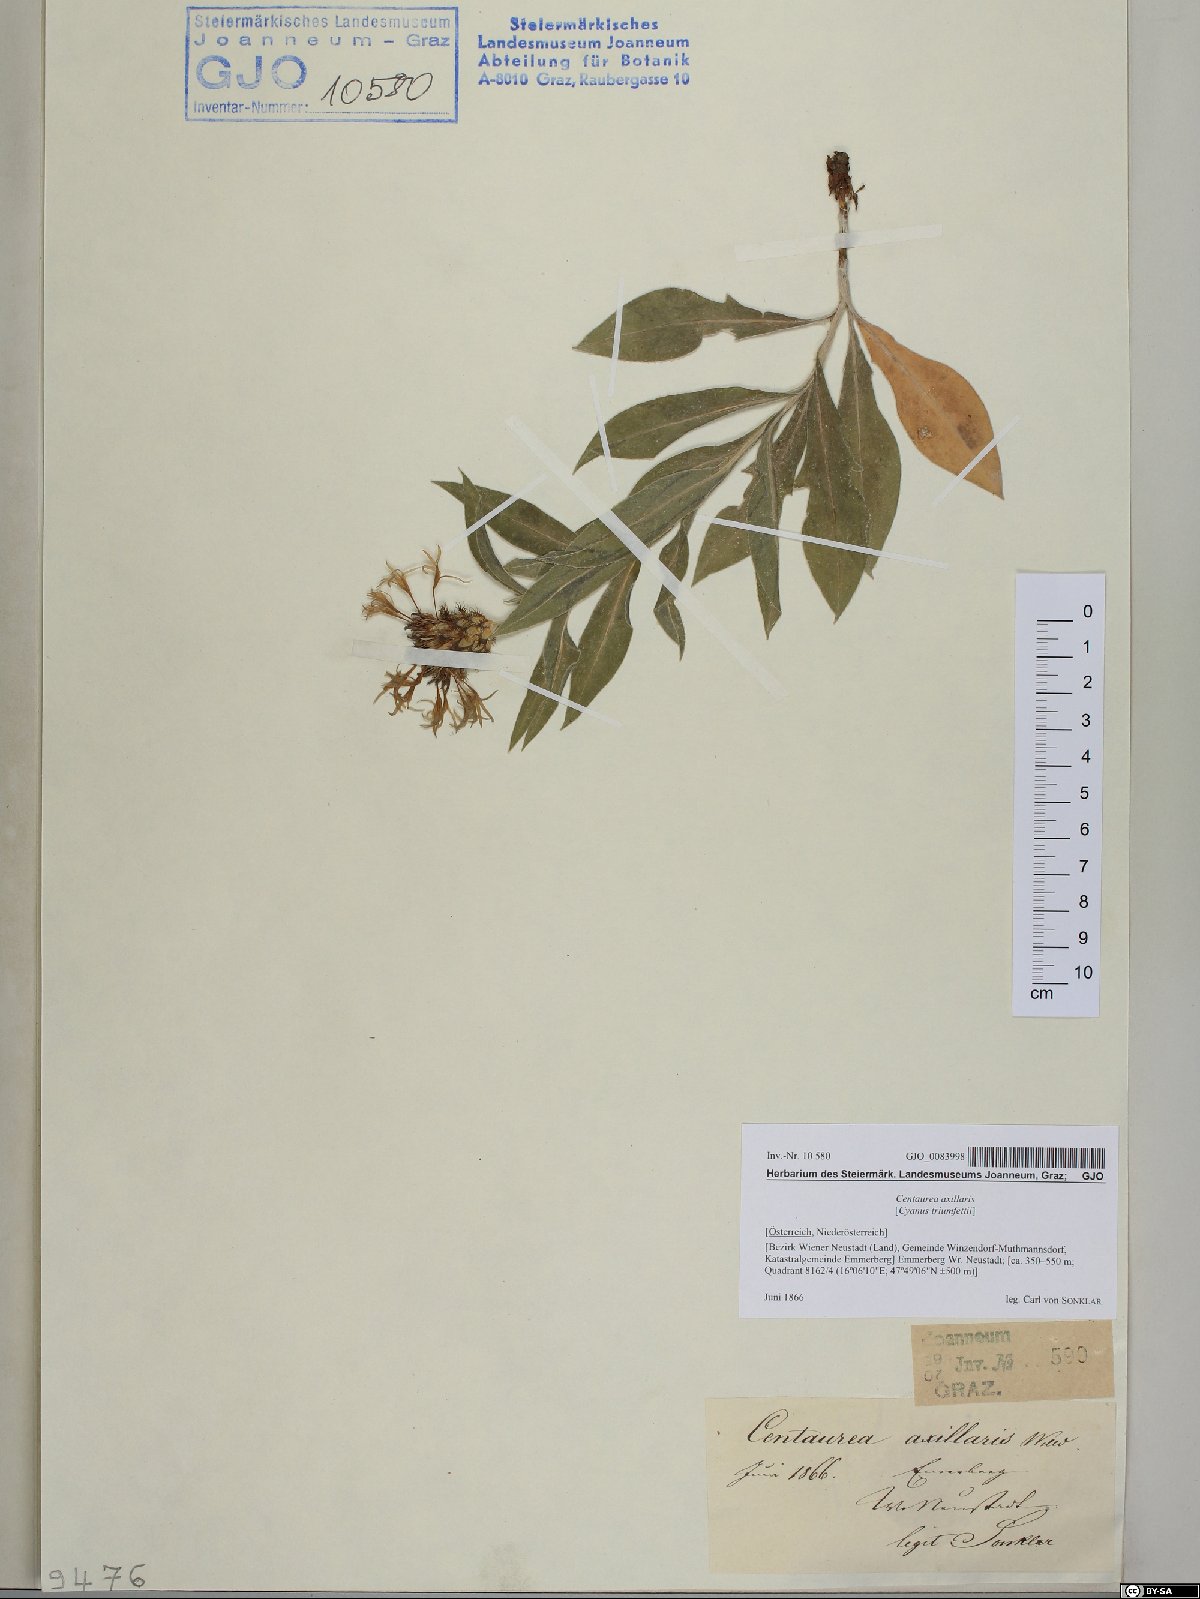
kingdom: Plantae
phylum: Tracheophyta
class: Magnoliopsida
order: Asterales
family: Asteraceae
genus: Centaurea
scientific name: Centaurea triumfettii
